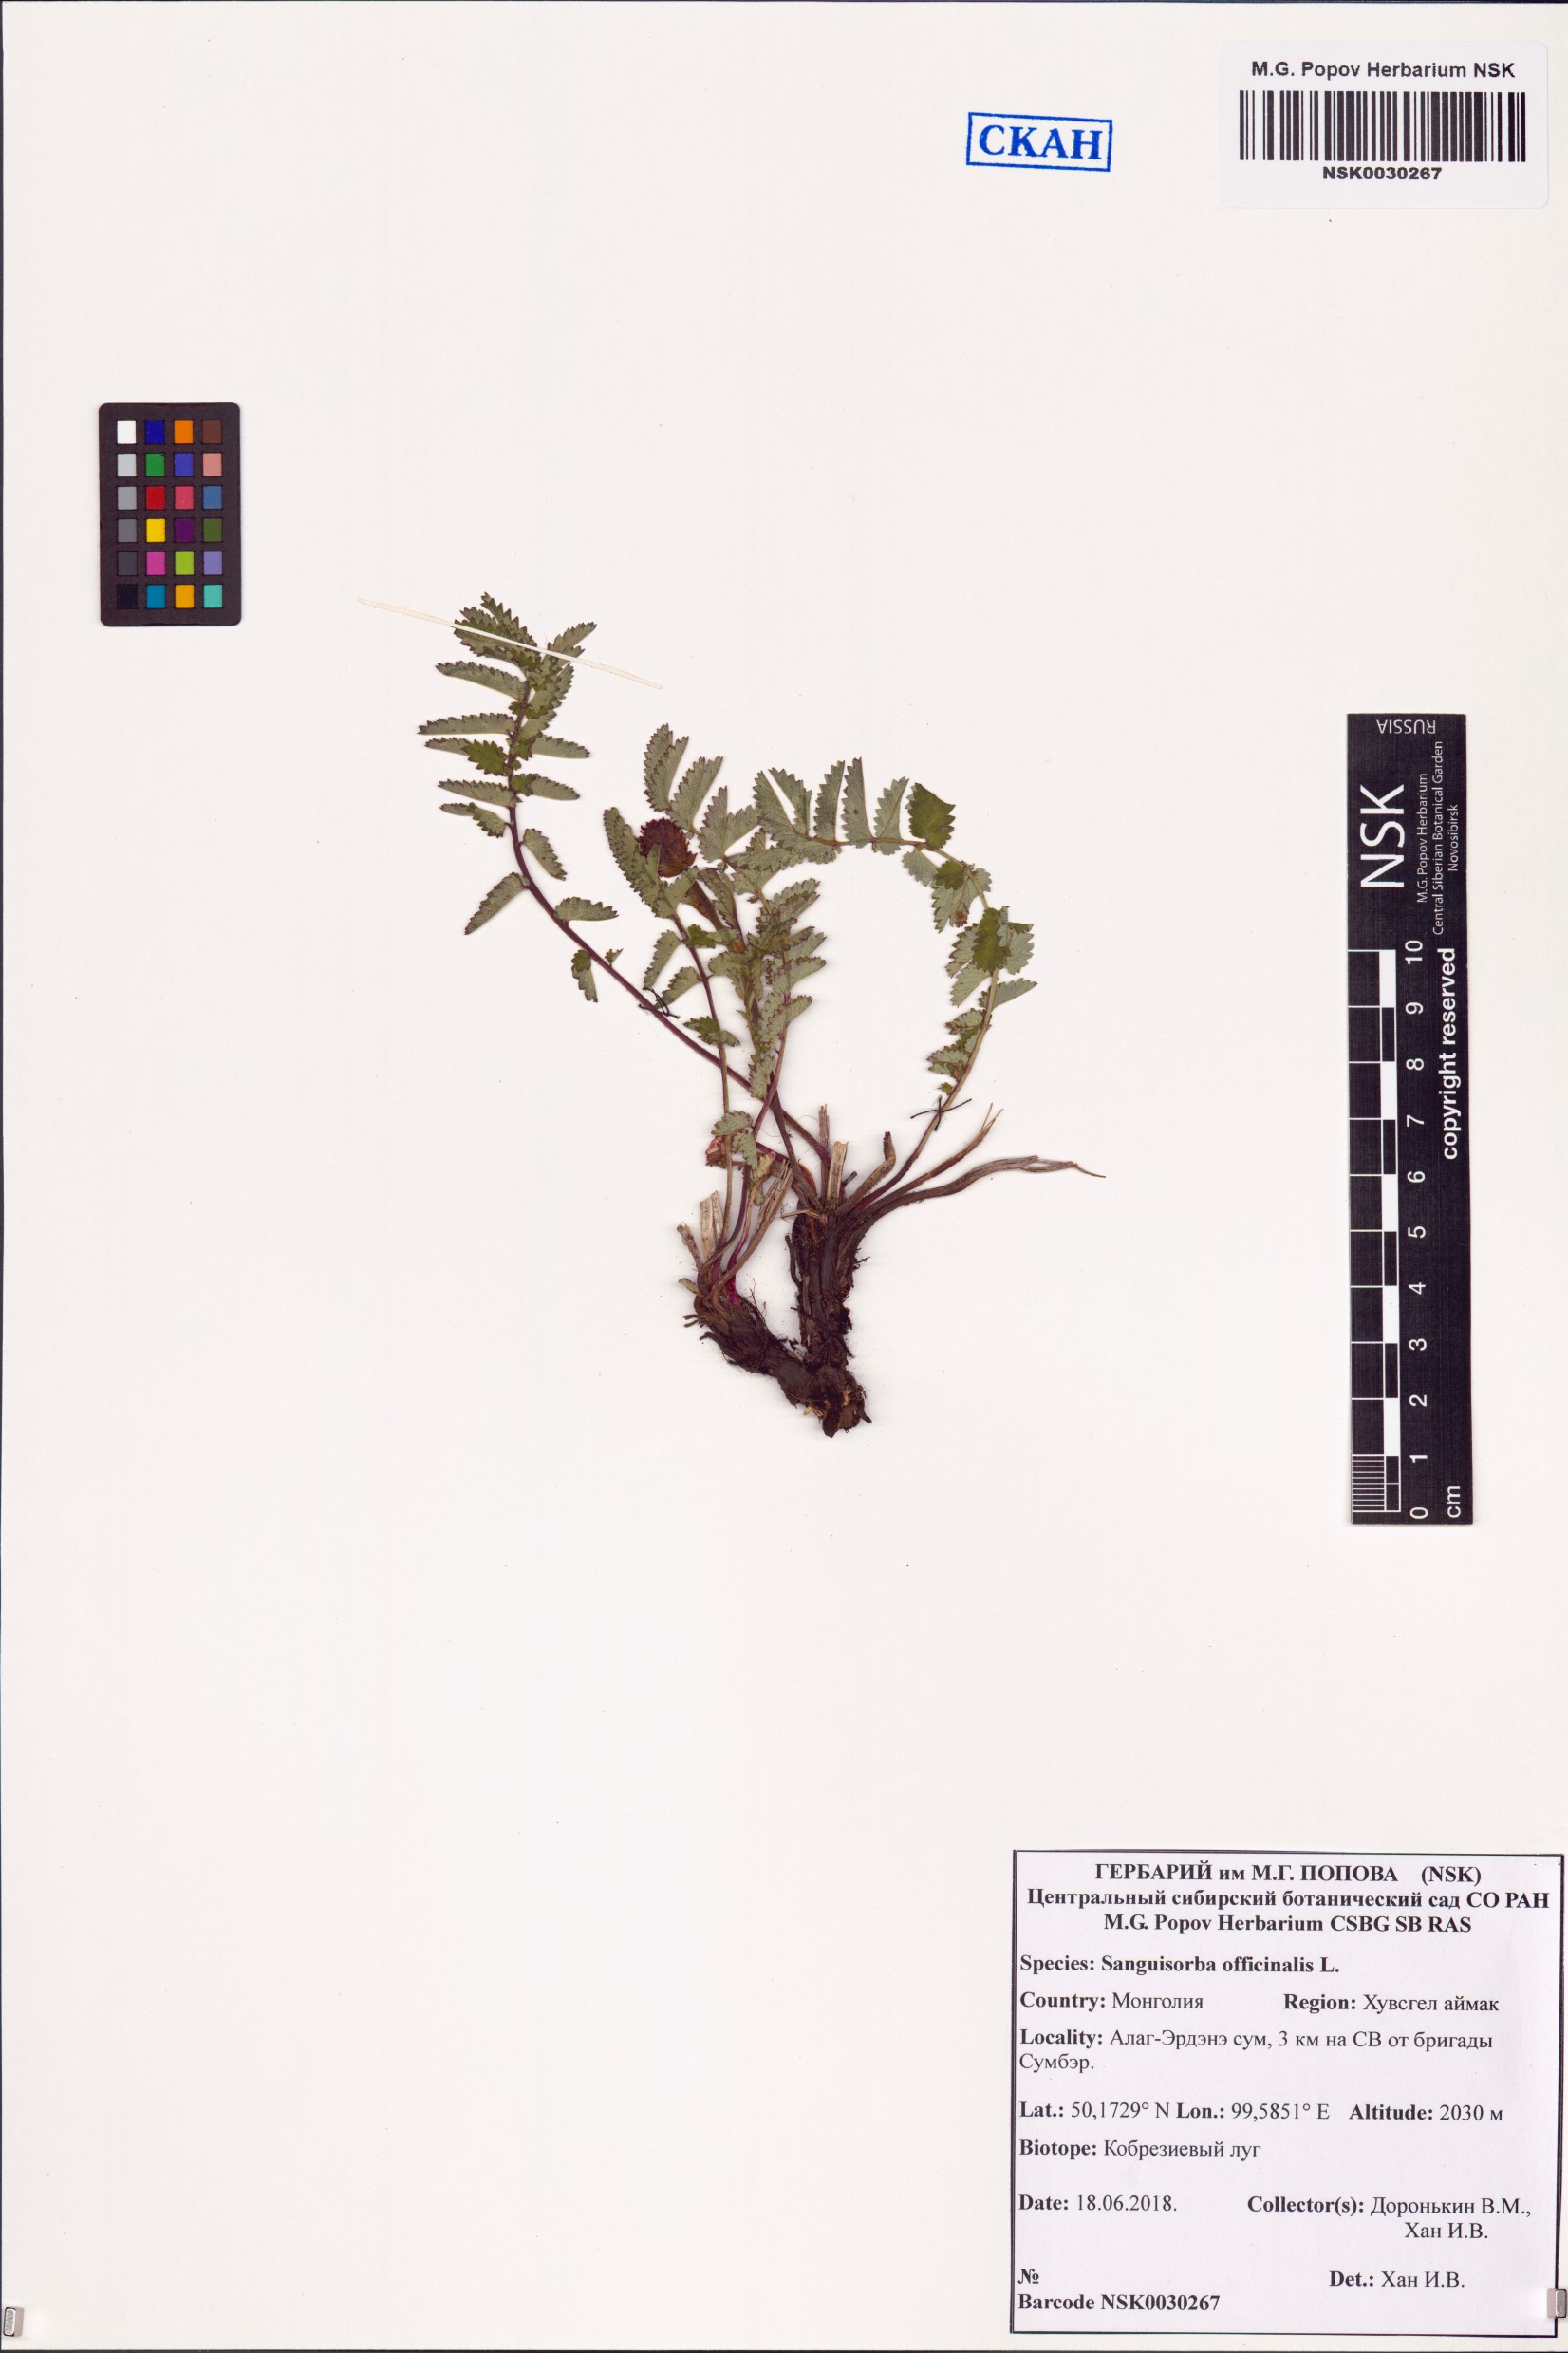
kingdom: Plantae
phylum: Tracheophyta
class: Magnoliopsida
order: Rosales
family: Rosaceae
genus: Sanguisorba
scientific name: Sanguisorba officinalis
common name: Great burnet
